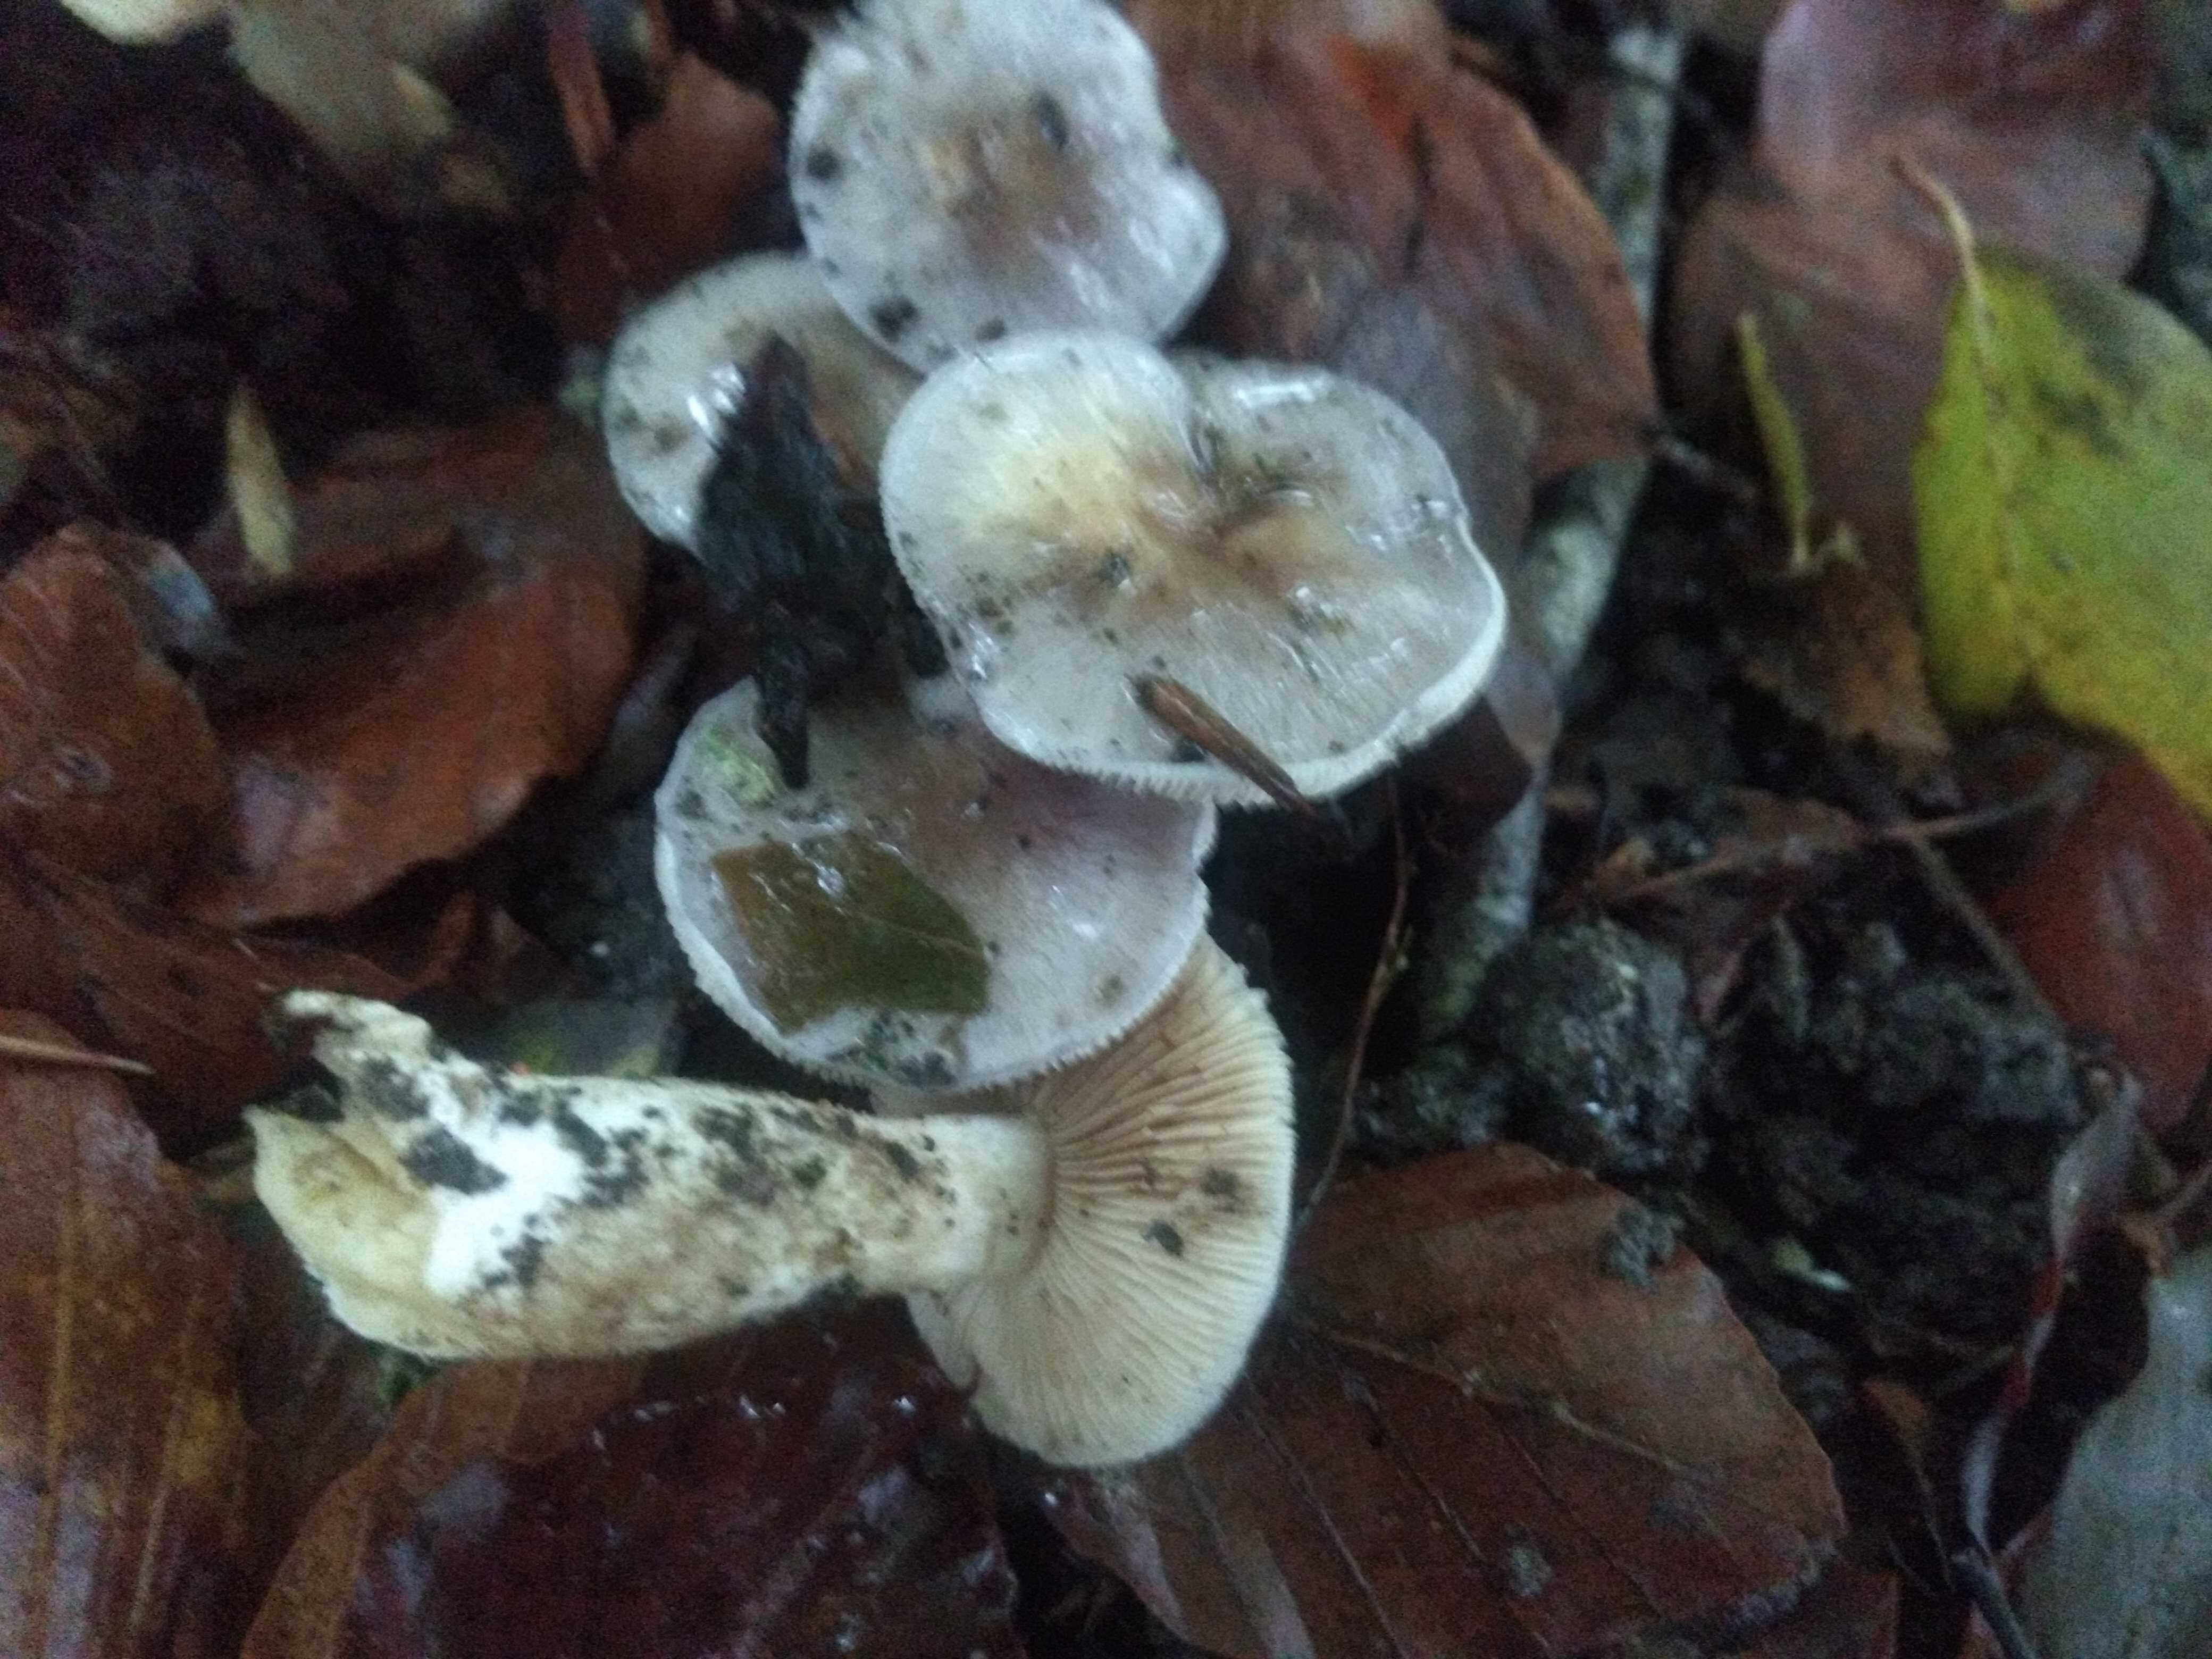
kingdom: Fungi
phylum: Basidiomycota
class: Agaricomycetes
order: Agaricales
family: Cortinariaceae
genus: Thaxterogaster
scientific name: Thaxterogaster croceocoeruleus
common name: blågullig slørhat
